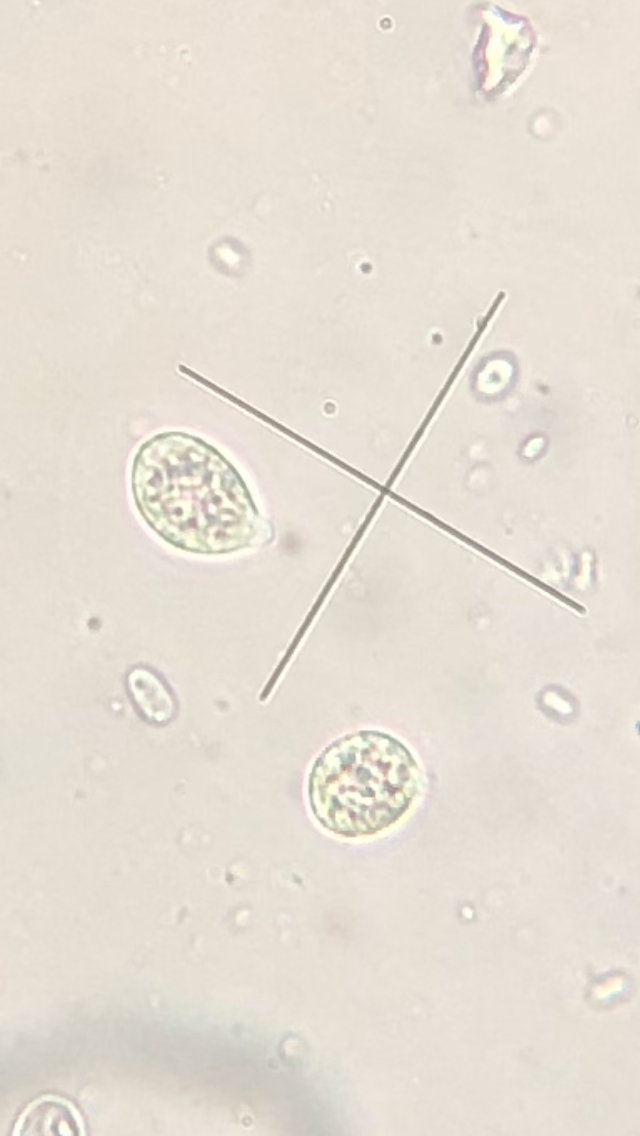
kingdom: Fungi
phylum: Basidiomycota
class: Tremellomycetes
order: Tremellales
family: Tremellaceae
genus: Phaeotremella
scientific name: Phaeotremella frondosa
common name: kæmpe-bævresvamp
